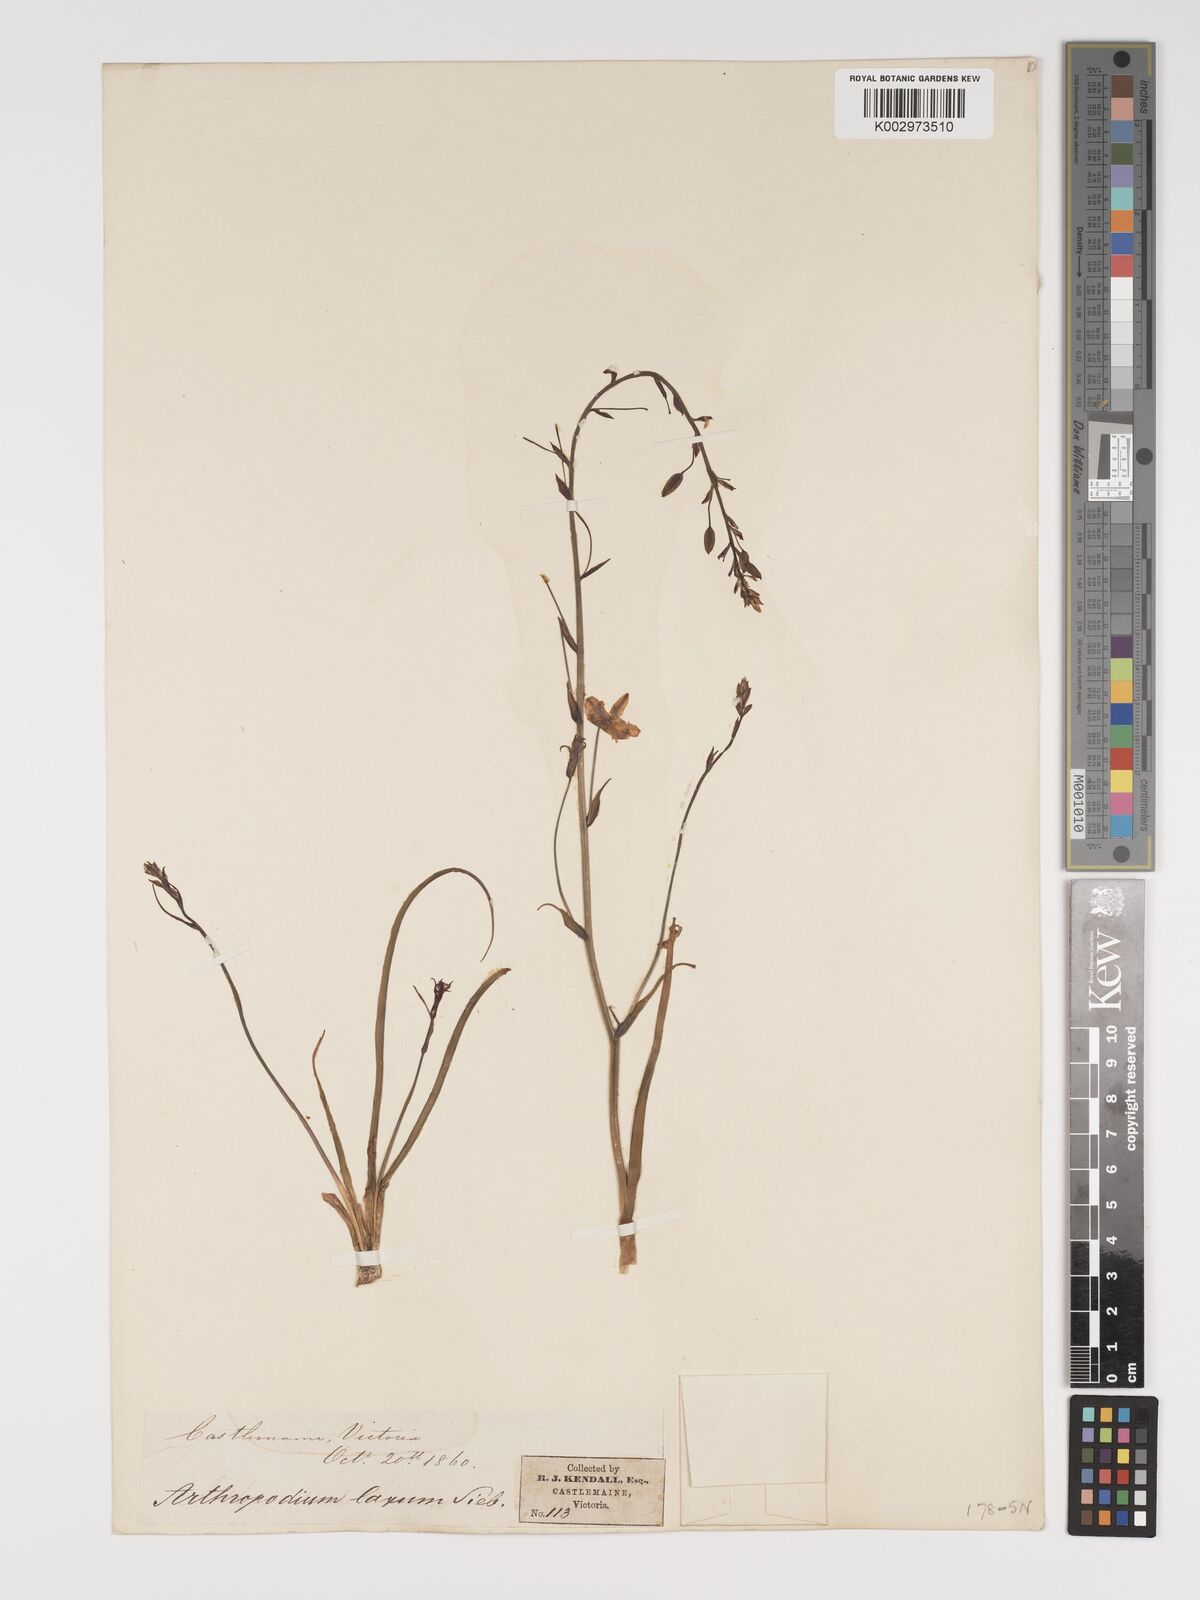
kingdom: Plantae
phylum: Tracheophyta
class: Liliopsida
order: Asparagales
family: Asparagaceae
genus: Dichopogon
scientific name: Dichopogon fimbriatus
